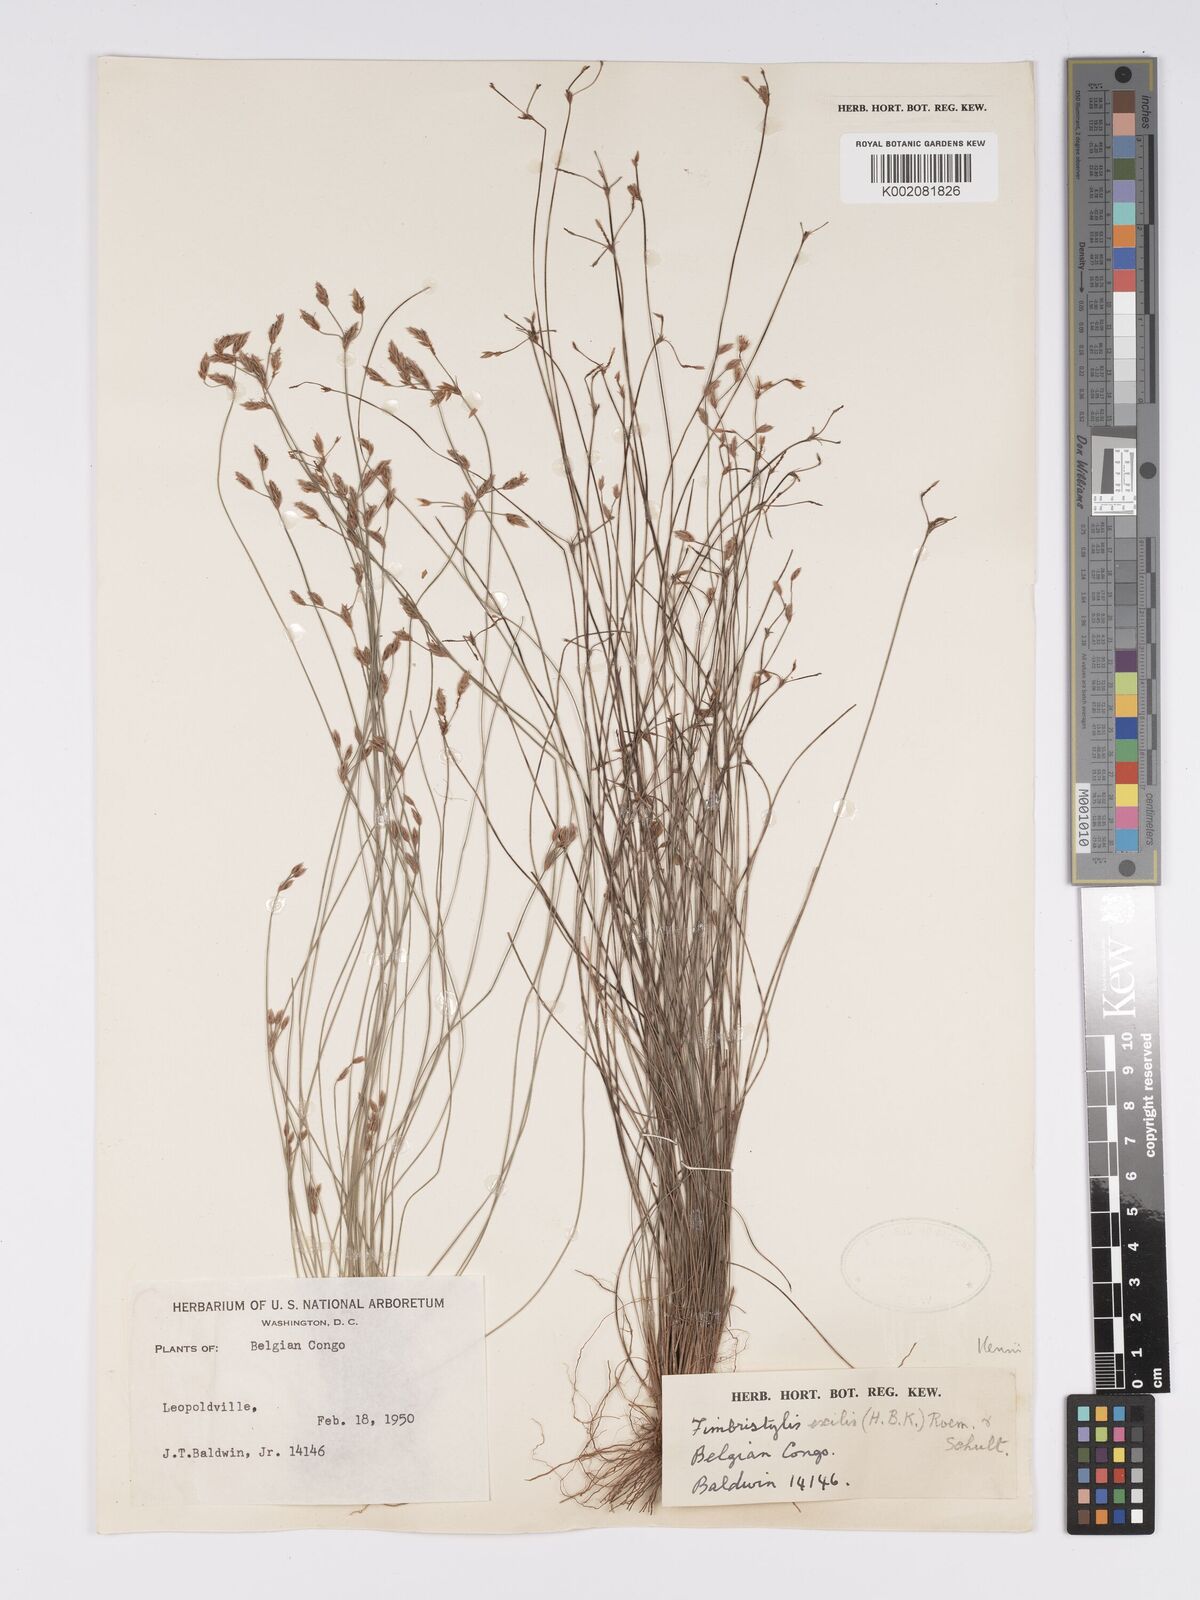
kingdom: Plantae
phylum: Tracheophyta
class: Liliopsida
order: Poales
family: Cyperaceae
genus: Bulbostylis
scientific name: Bulbostylis hispidula
